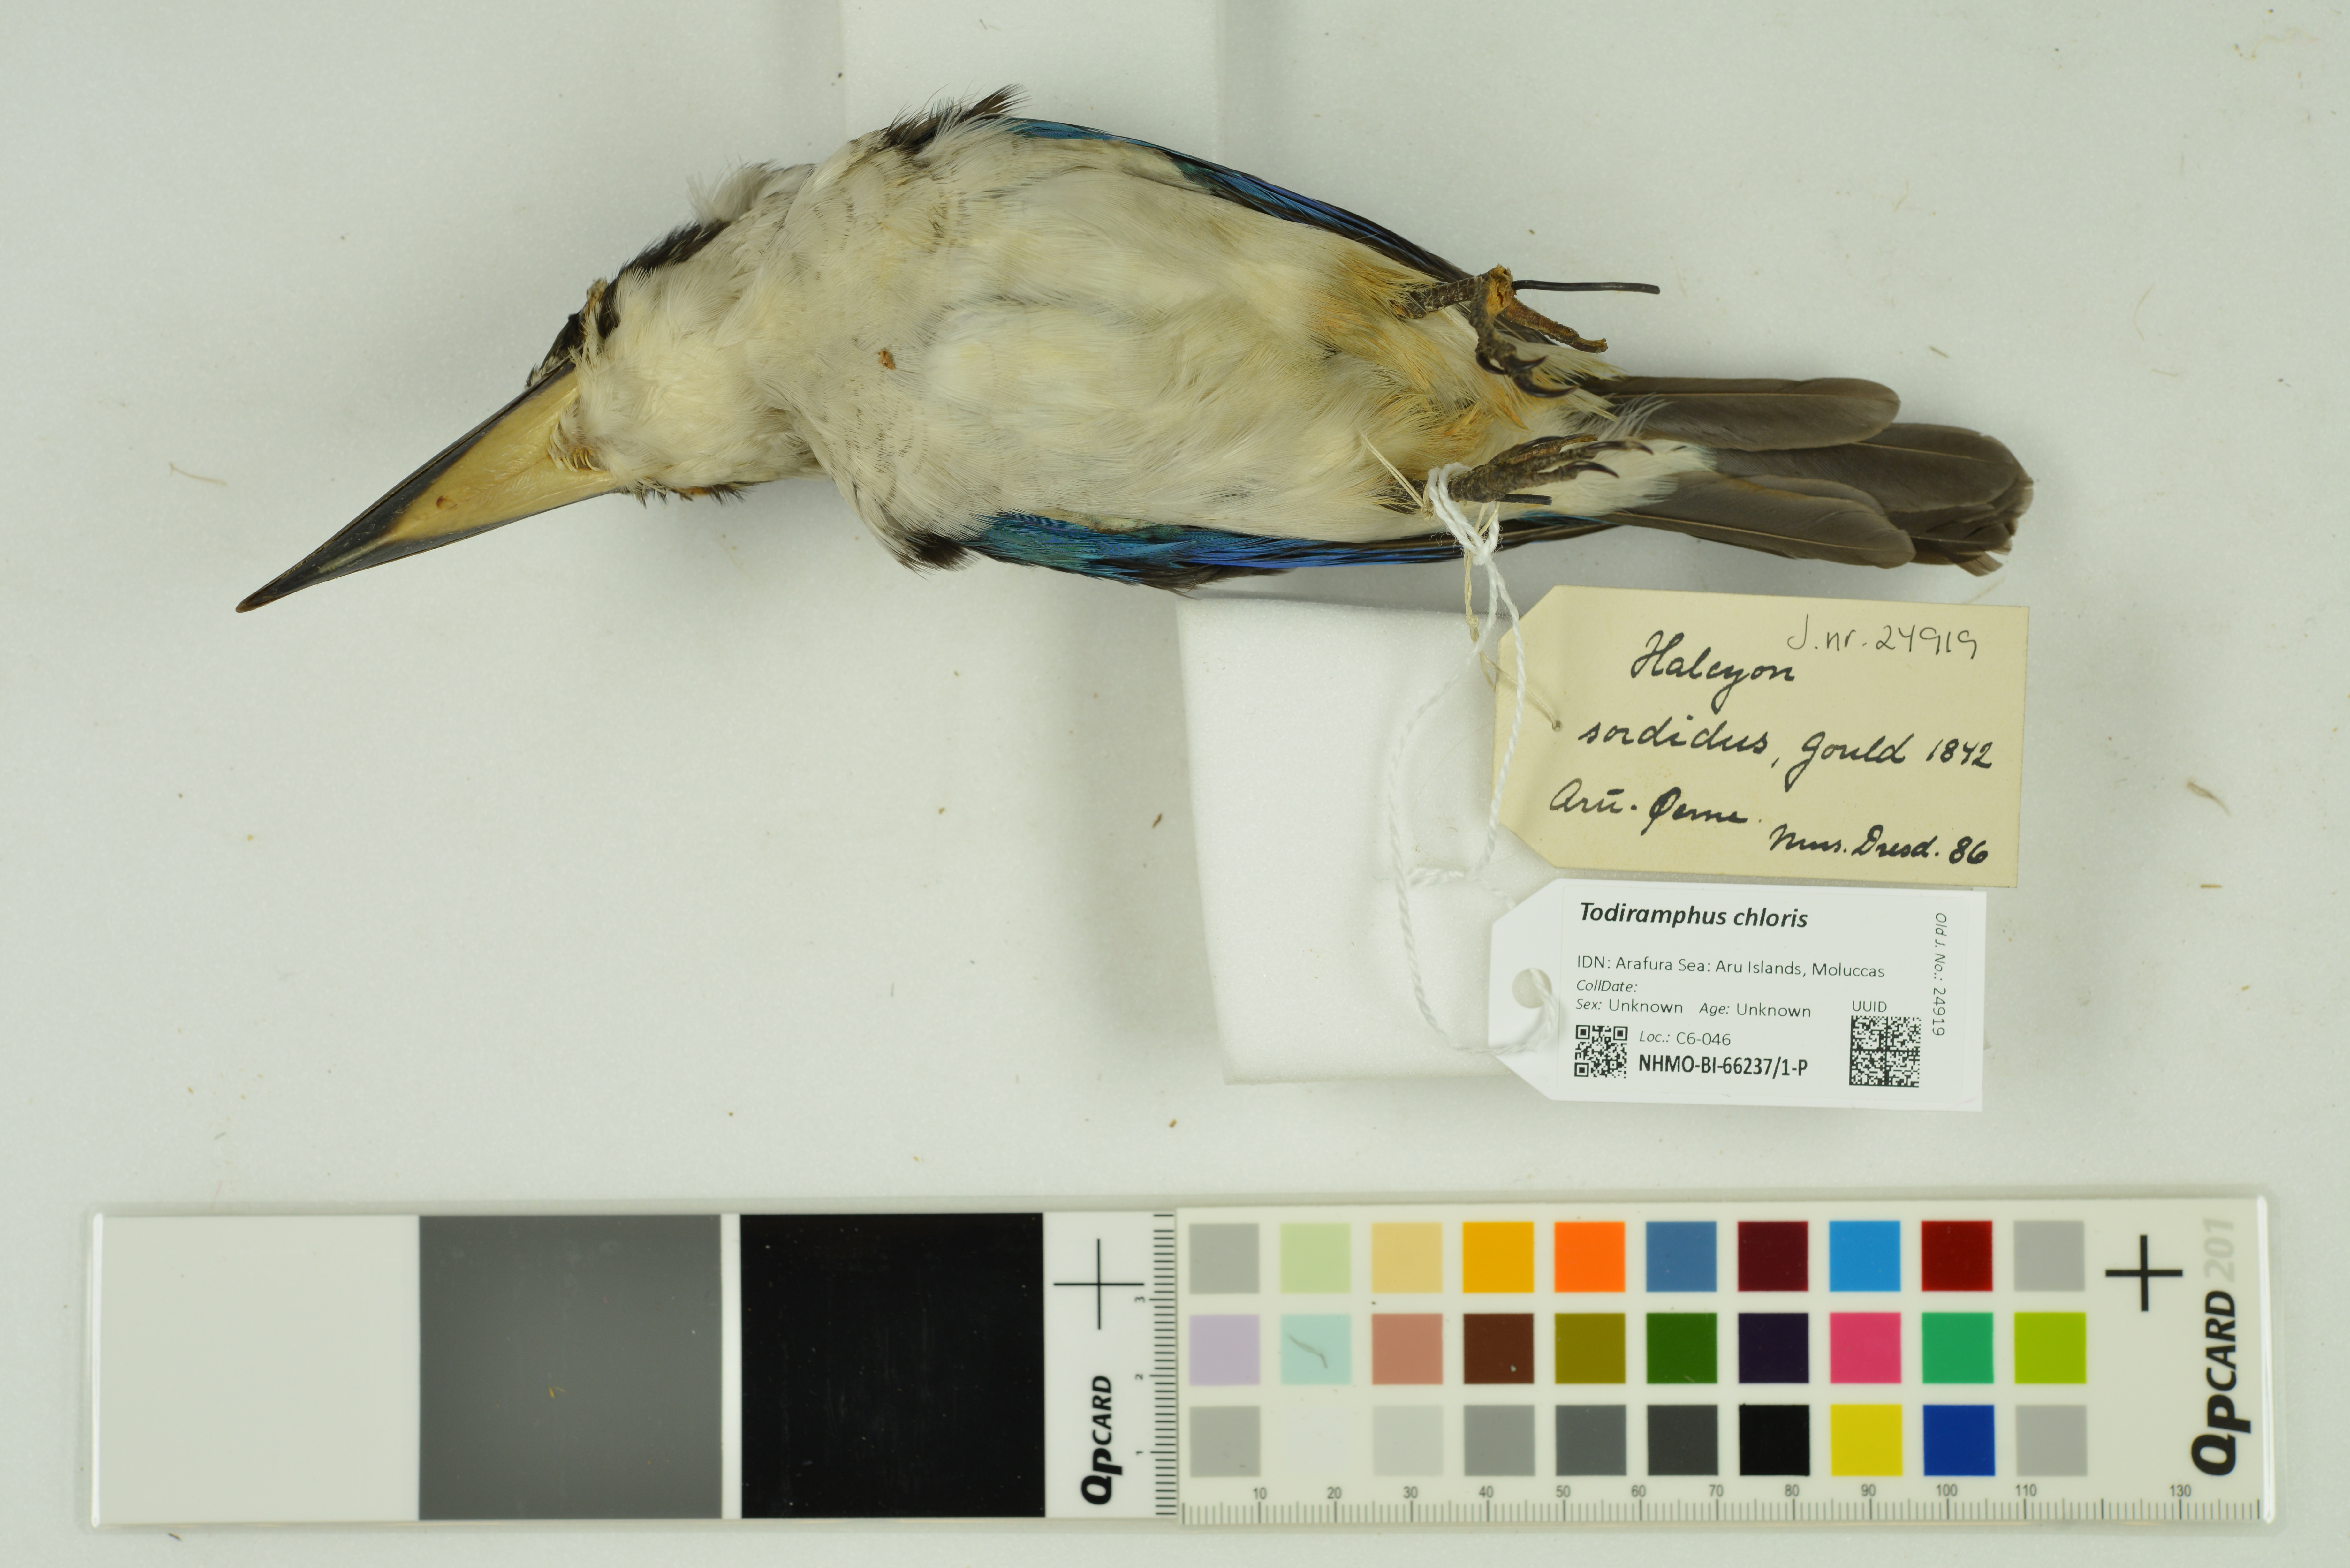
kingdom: Animalia
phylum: Chordata
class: Aves
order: Coraciiformes
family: Alcedinidae
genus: Todiramphus
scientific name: Todiramphus chloris
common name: Collared kingfisher
